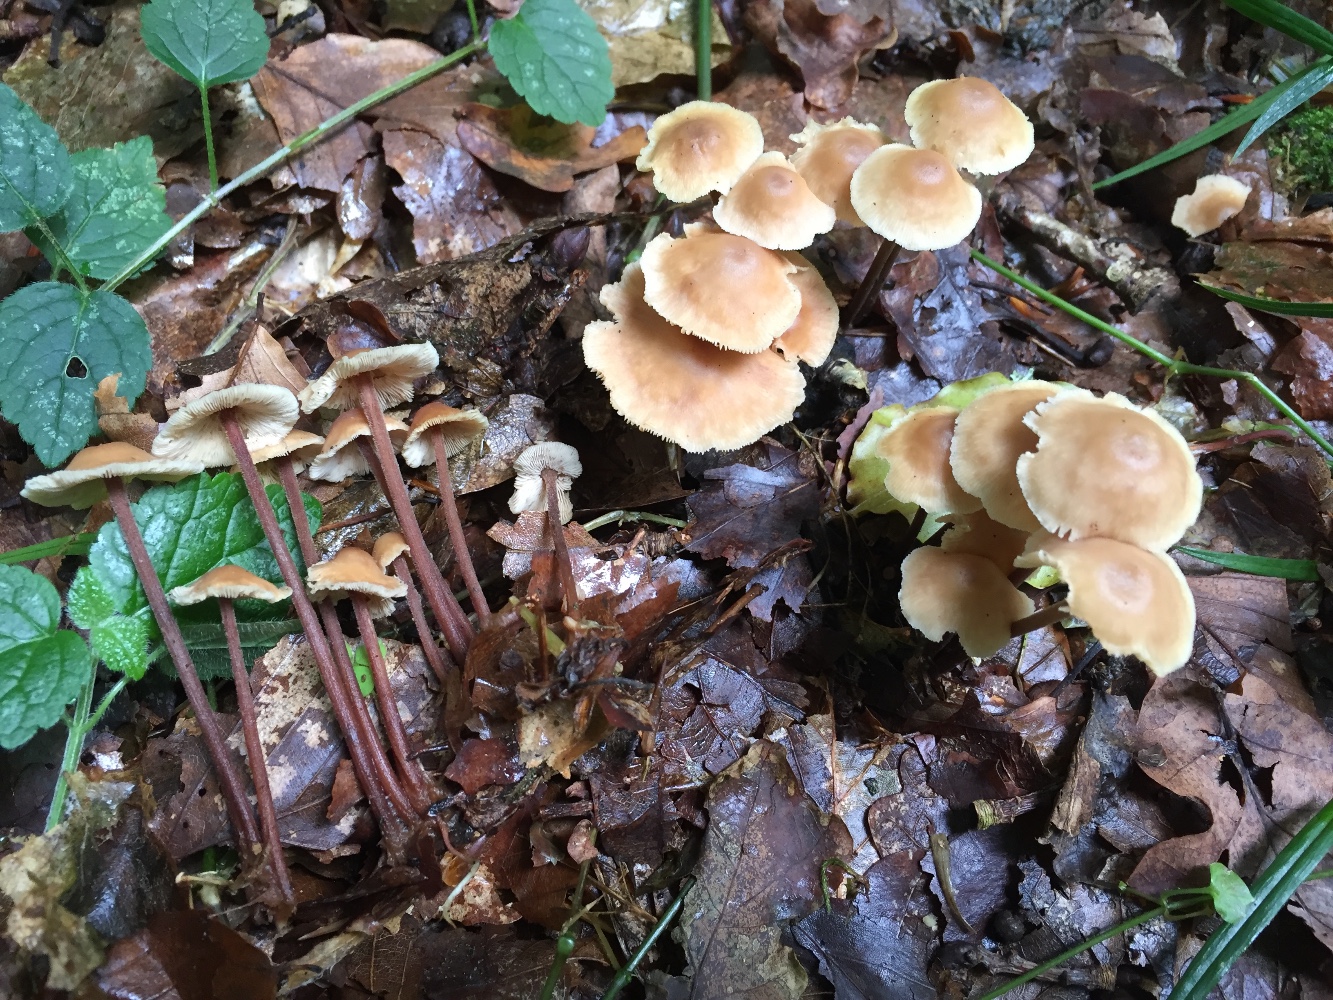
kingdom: Fungi
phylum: Basidiomycota
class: Agaricomycetes
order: Agaricales
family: Omphalotaceae
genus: Collybiopsis
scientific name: Collybiopsis confluens
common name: knippe-fladhat
